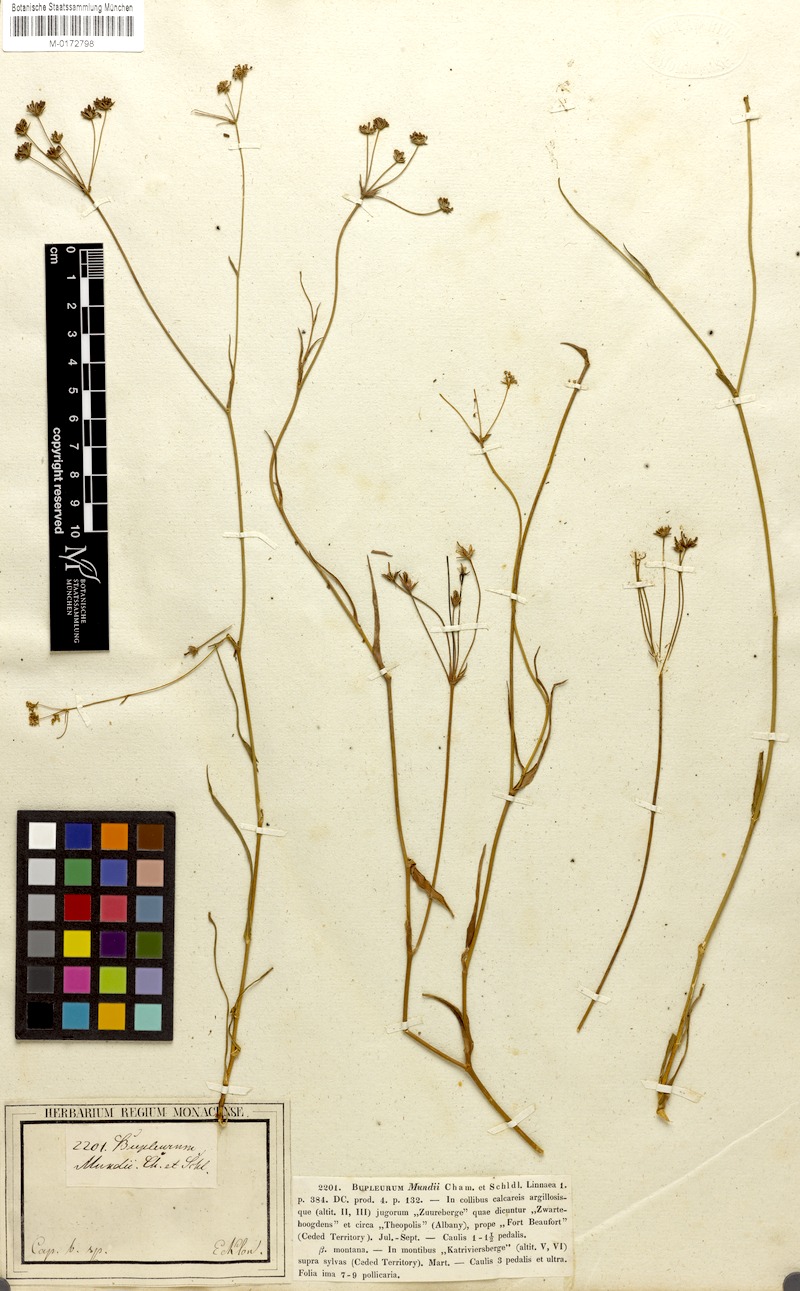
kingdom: Plantae
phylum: Tracheophyta
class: Magnoliopsida
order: Apiales
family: Apiaceae
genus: Bupleurum
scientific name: Bupleurum mundtii
